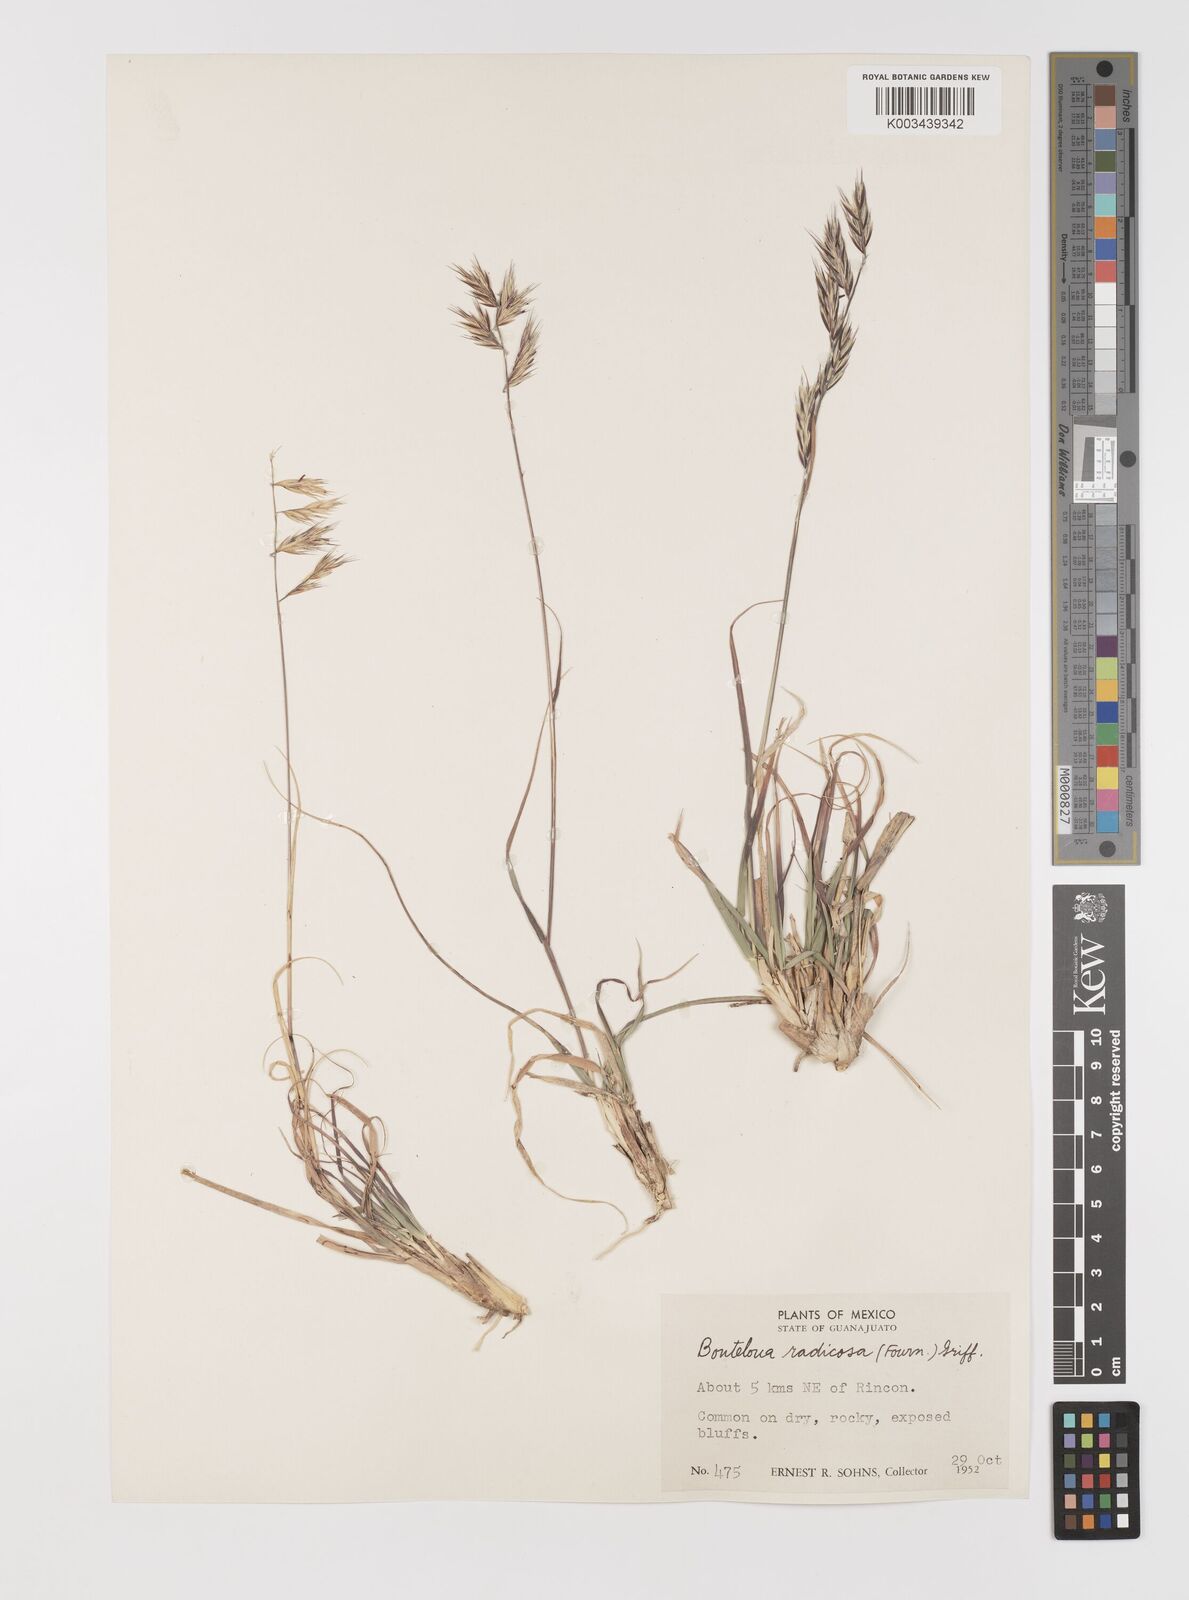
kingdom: Plantae
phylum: Tracheophyta
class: Liliopsida
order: Poales
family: Poaceae
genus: Bouteloua
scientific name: Bouteloua radicosa
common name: Purple grama
